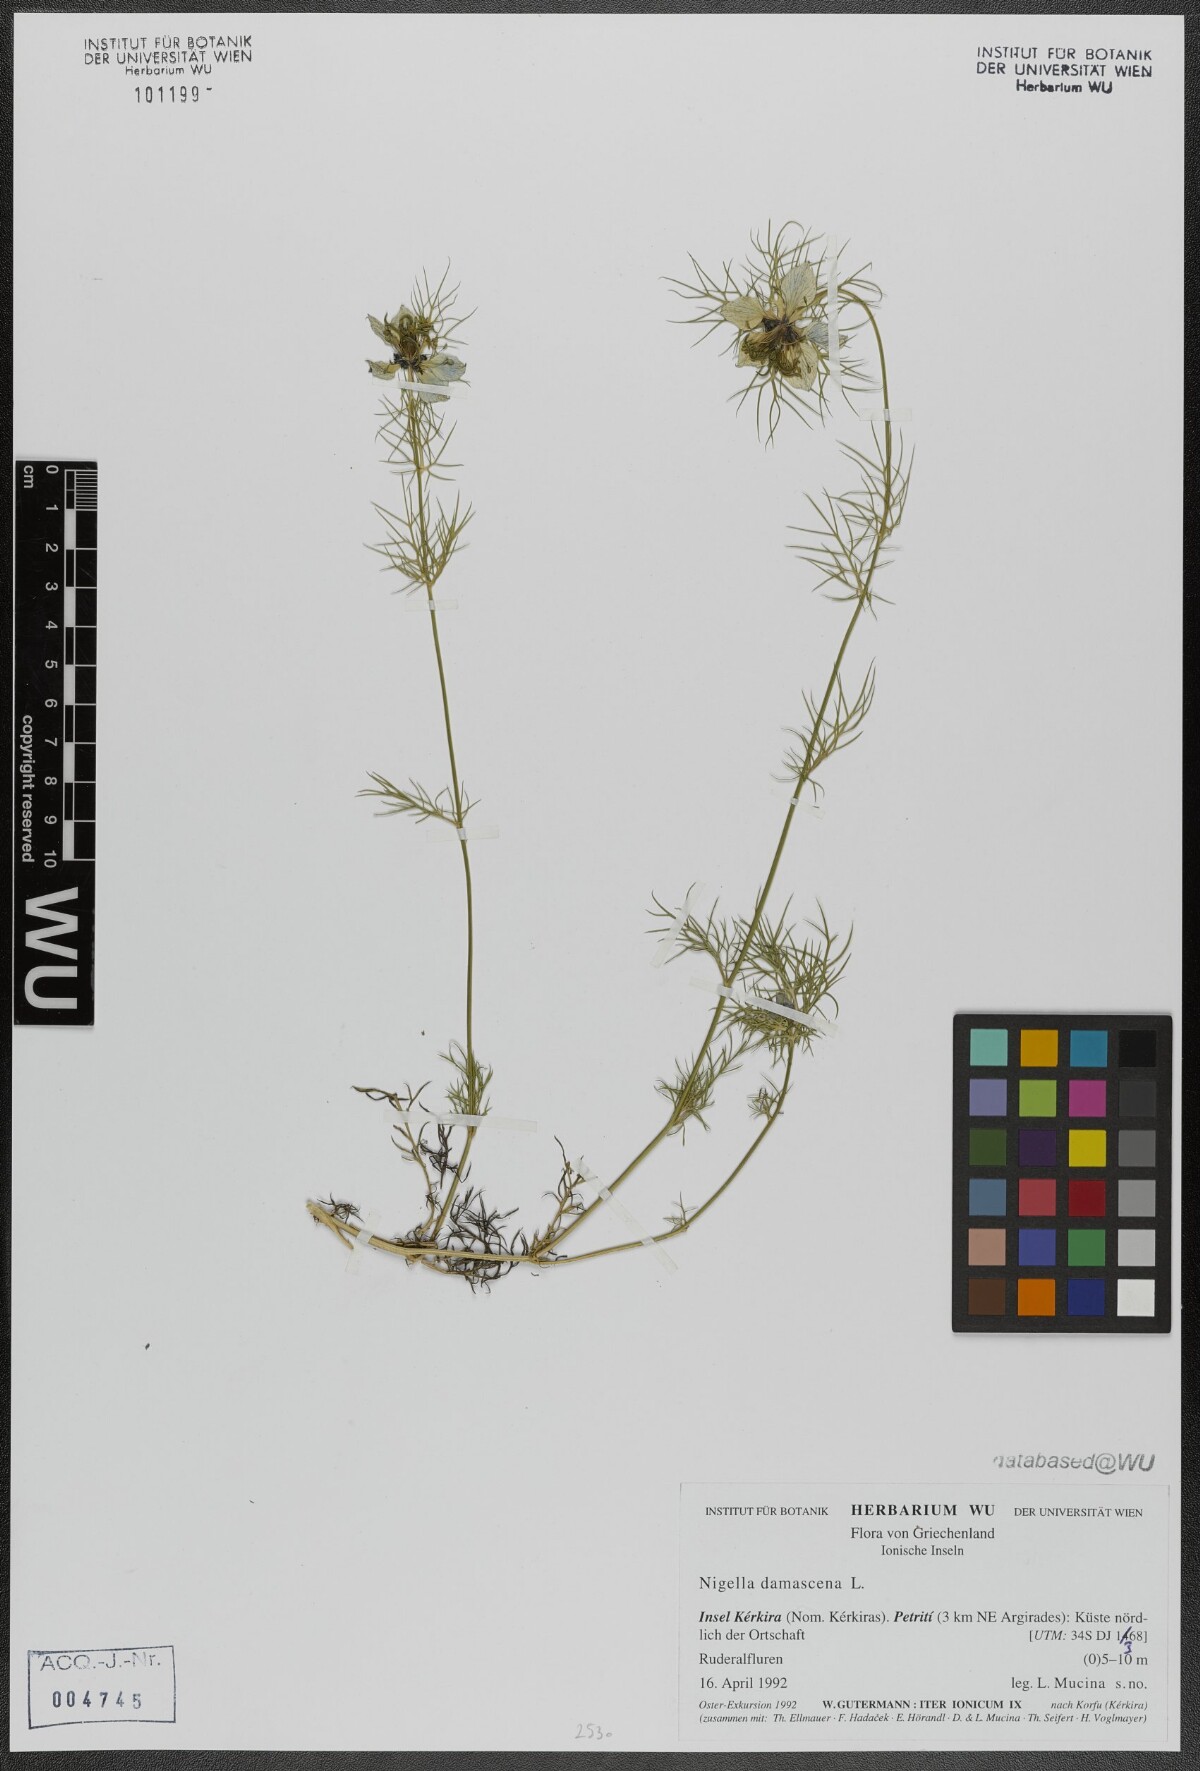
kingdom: Plantae
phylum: Tracheophyta
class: Magnoliopsida
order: Ranunculales
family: Ranunculaceae
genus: Nigella
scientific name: Nigella damascena
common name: Love-in-a-mist
